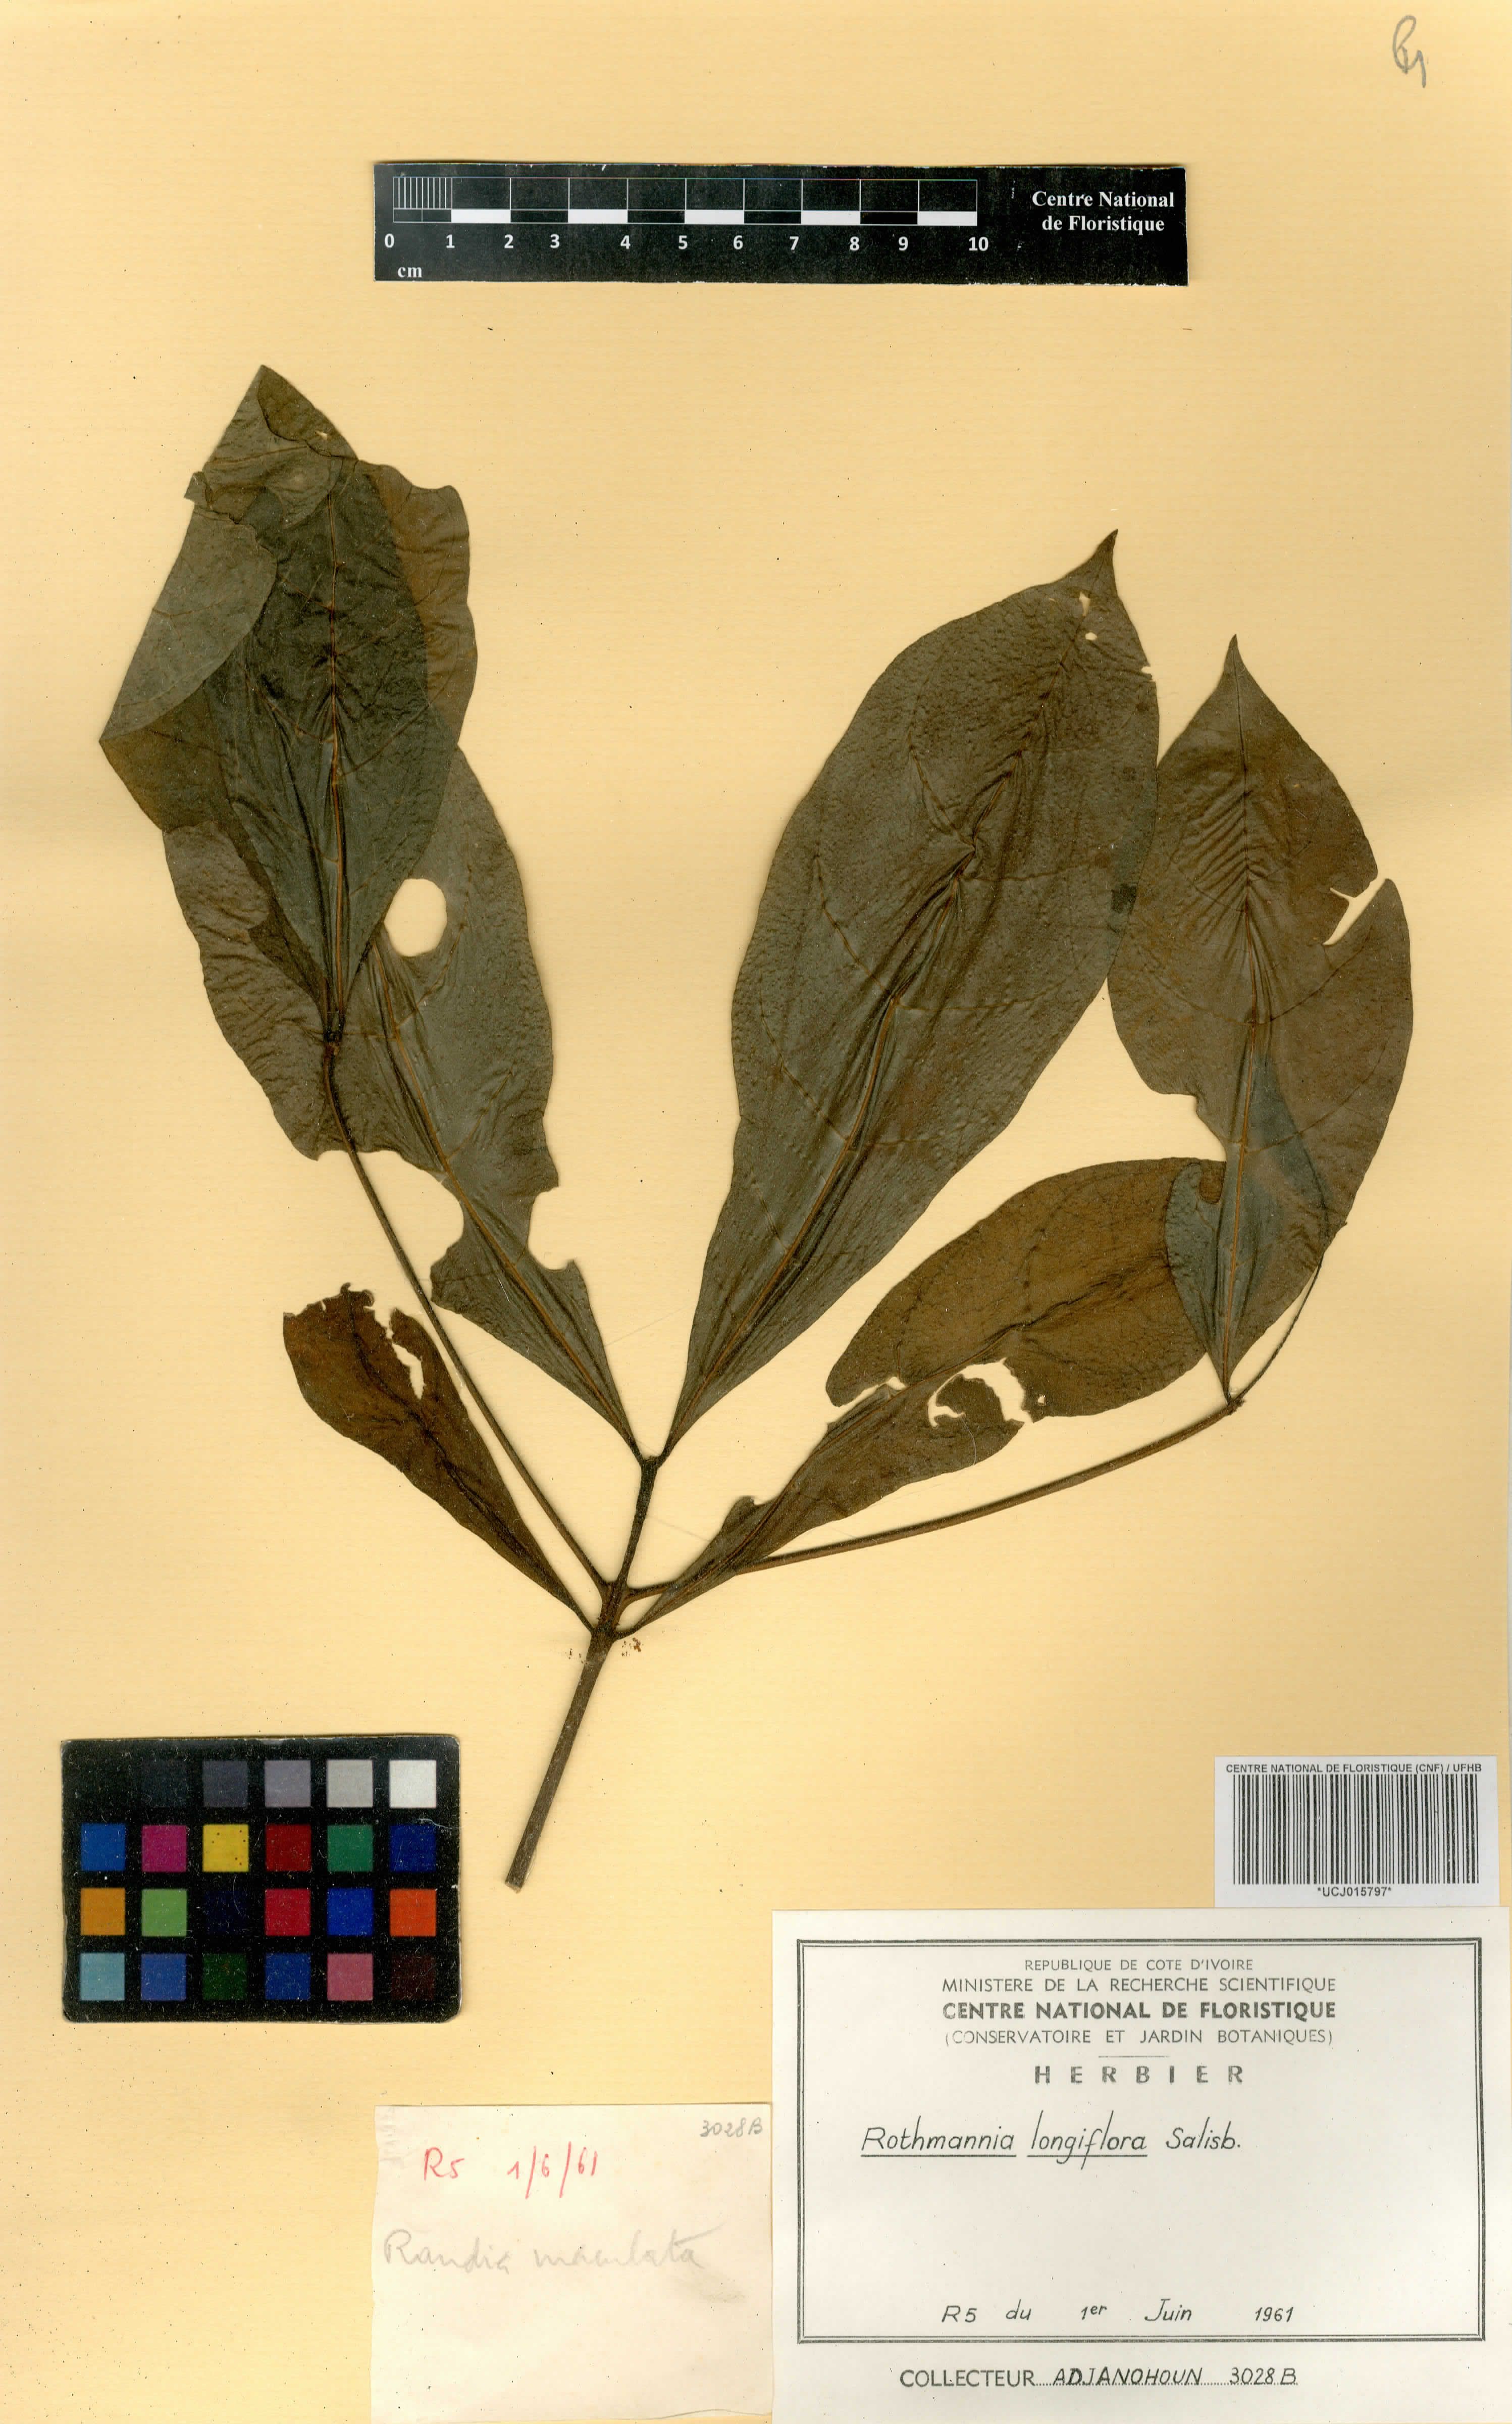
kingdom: Plantae
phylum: Tracheophyta
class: Magnoliopsida
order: Gentianales
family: Rubiaceae
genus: Rothmannia
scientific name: Rothmannia longiflora
